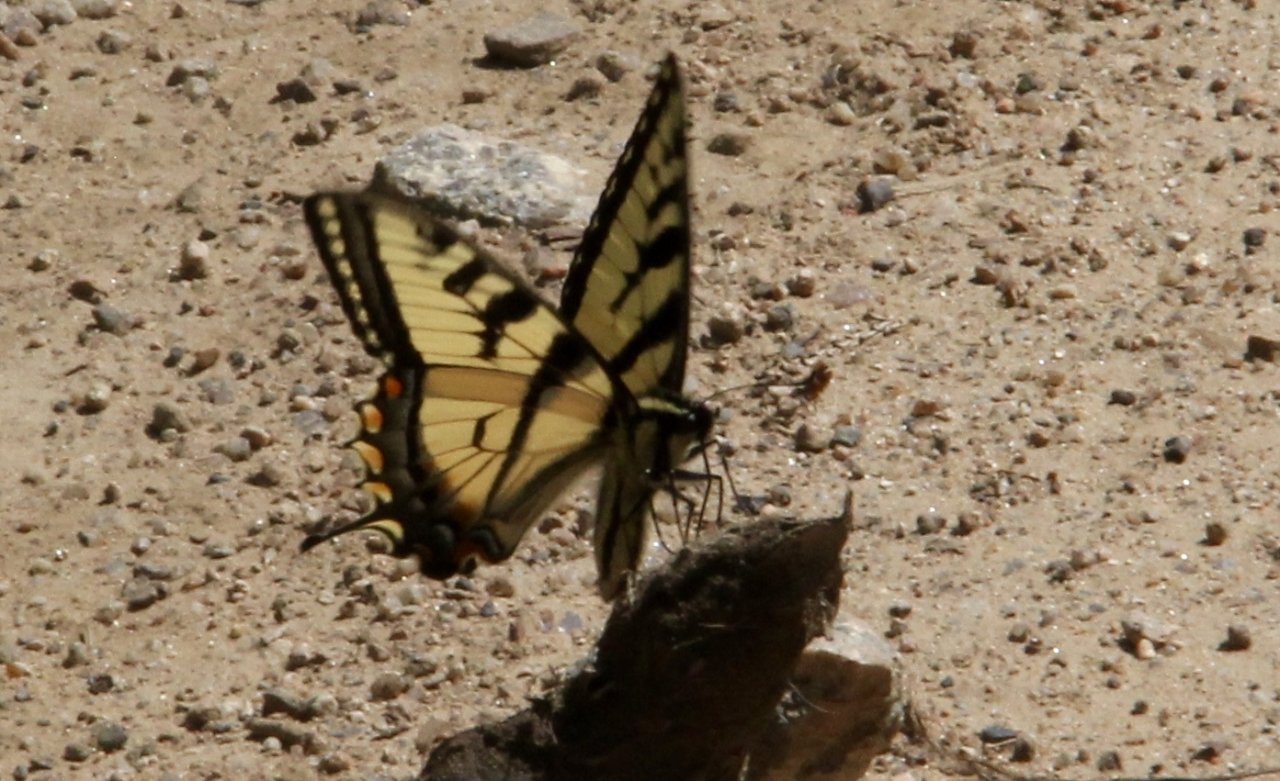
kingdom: Animalia
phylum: Arthropoda
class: Insecta
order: Lepidoptera
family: Papilionidae
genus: Pterourus
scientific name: Pterourus canadensis
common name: Canadian Tiger Swallowtail
